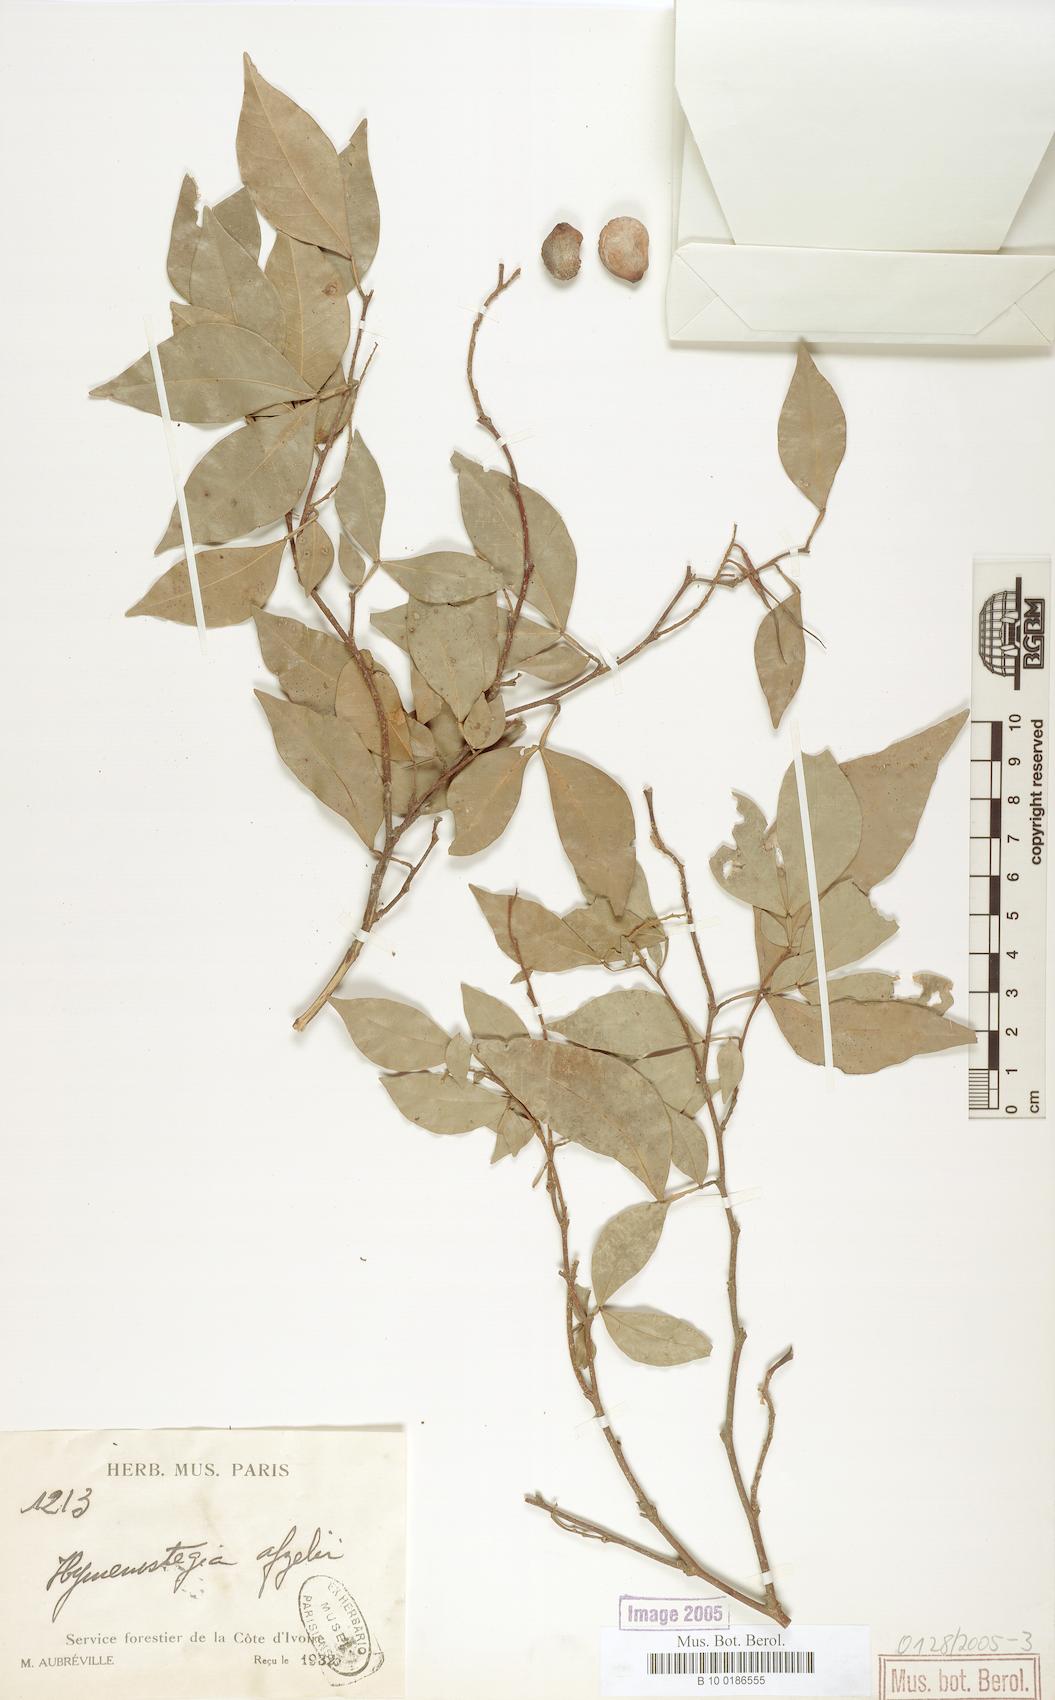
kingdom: Plantae
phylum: Tracheophyta
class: Magnoliopsida
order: Fabales
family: Fabaceae
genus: Annea
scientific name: Annea afzelii
